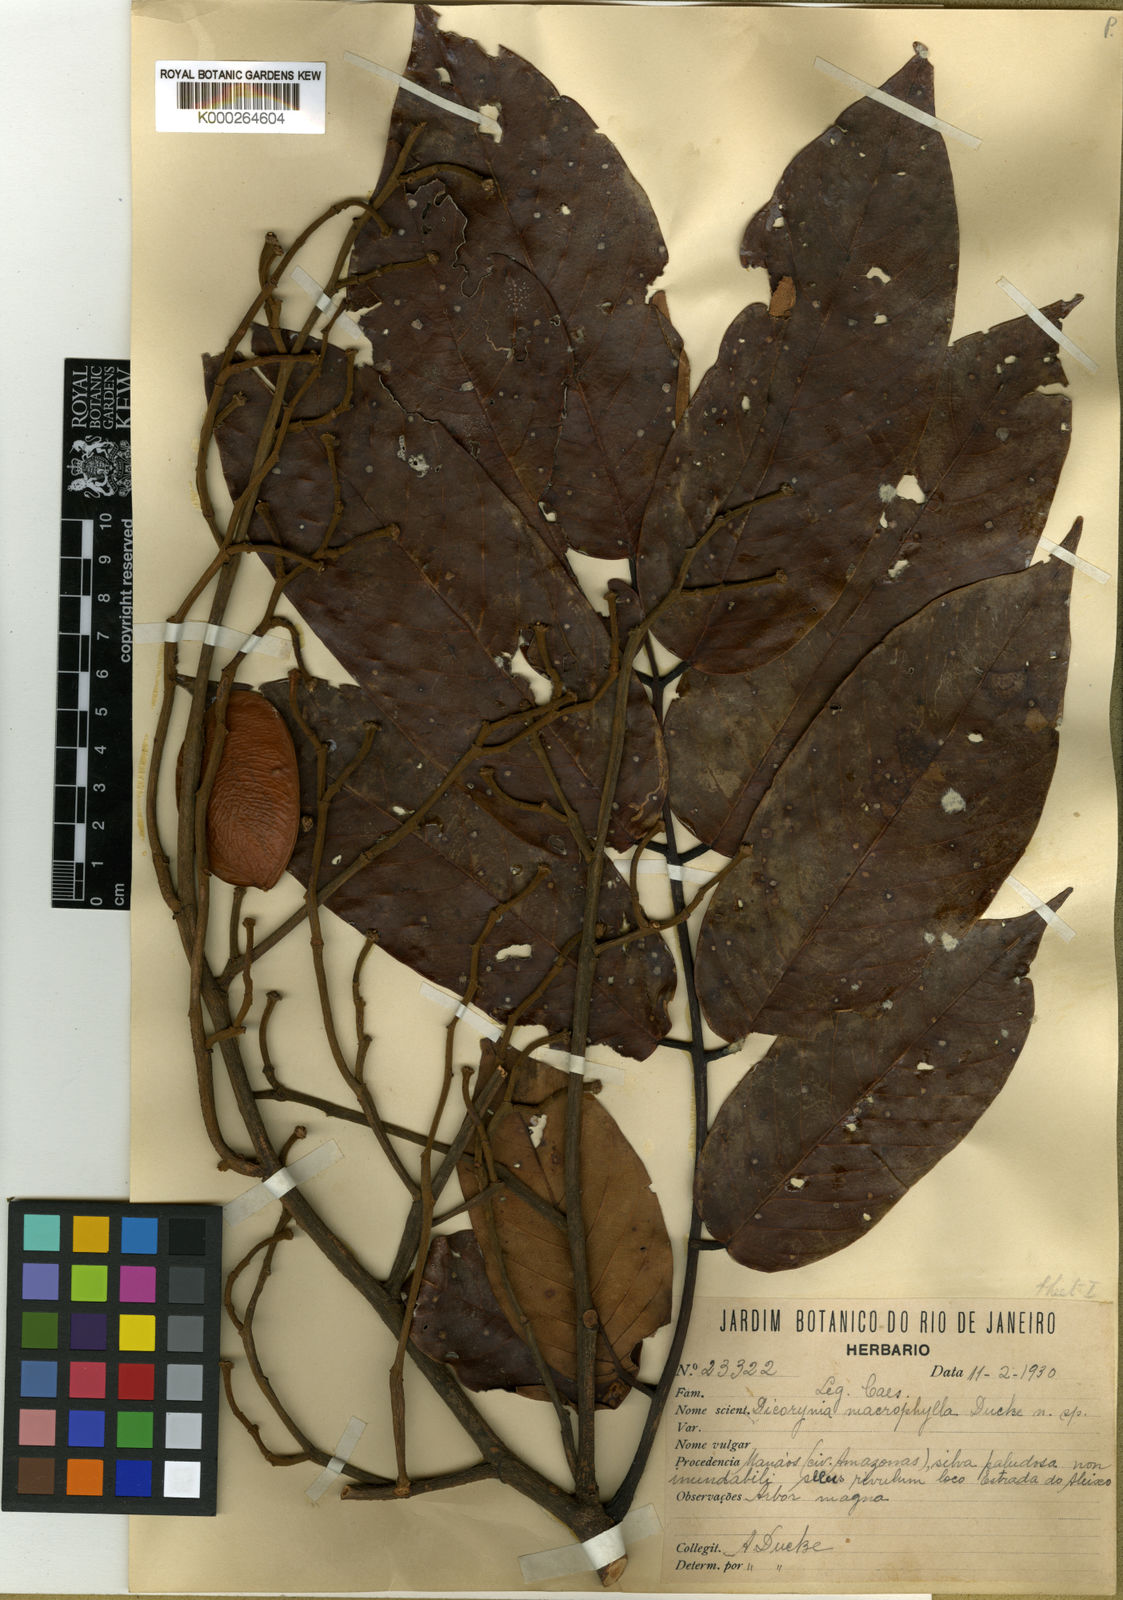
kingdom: Plantae
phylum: Tracheophyta
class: Magnoliopsida
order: Fabales
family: Fabaceae
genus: Dicorynia
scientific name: Dicorynia paraensis
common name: Angelique
